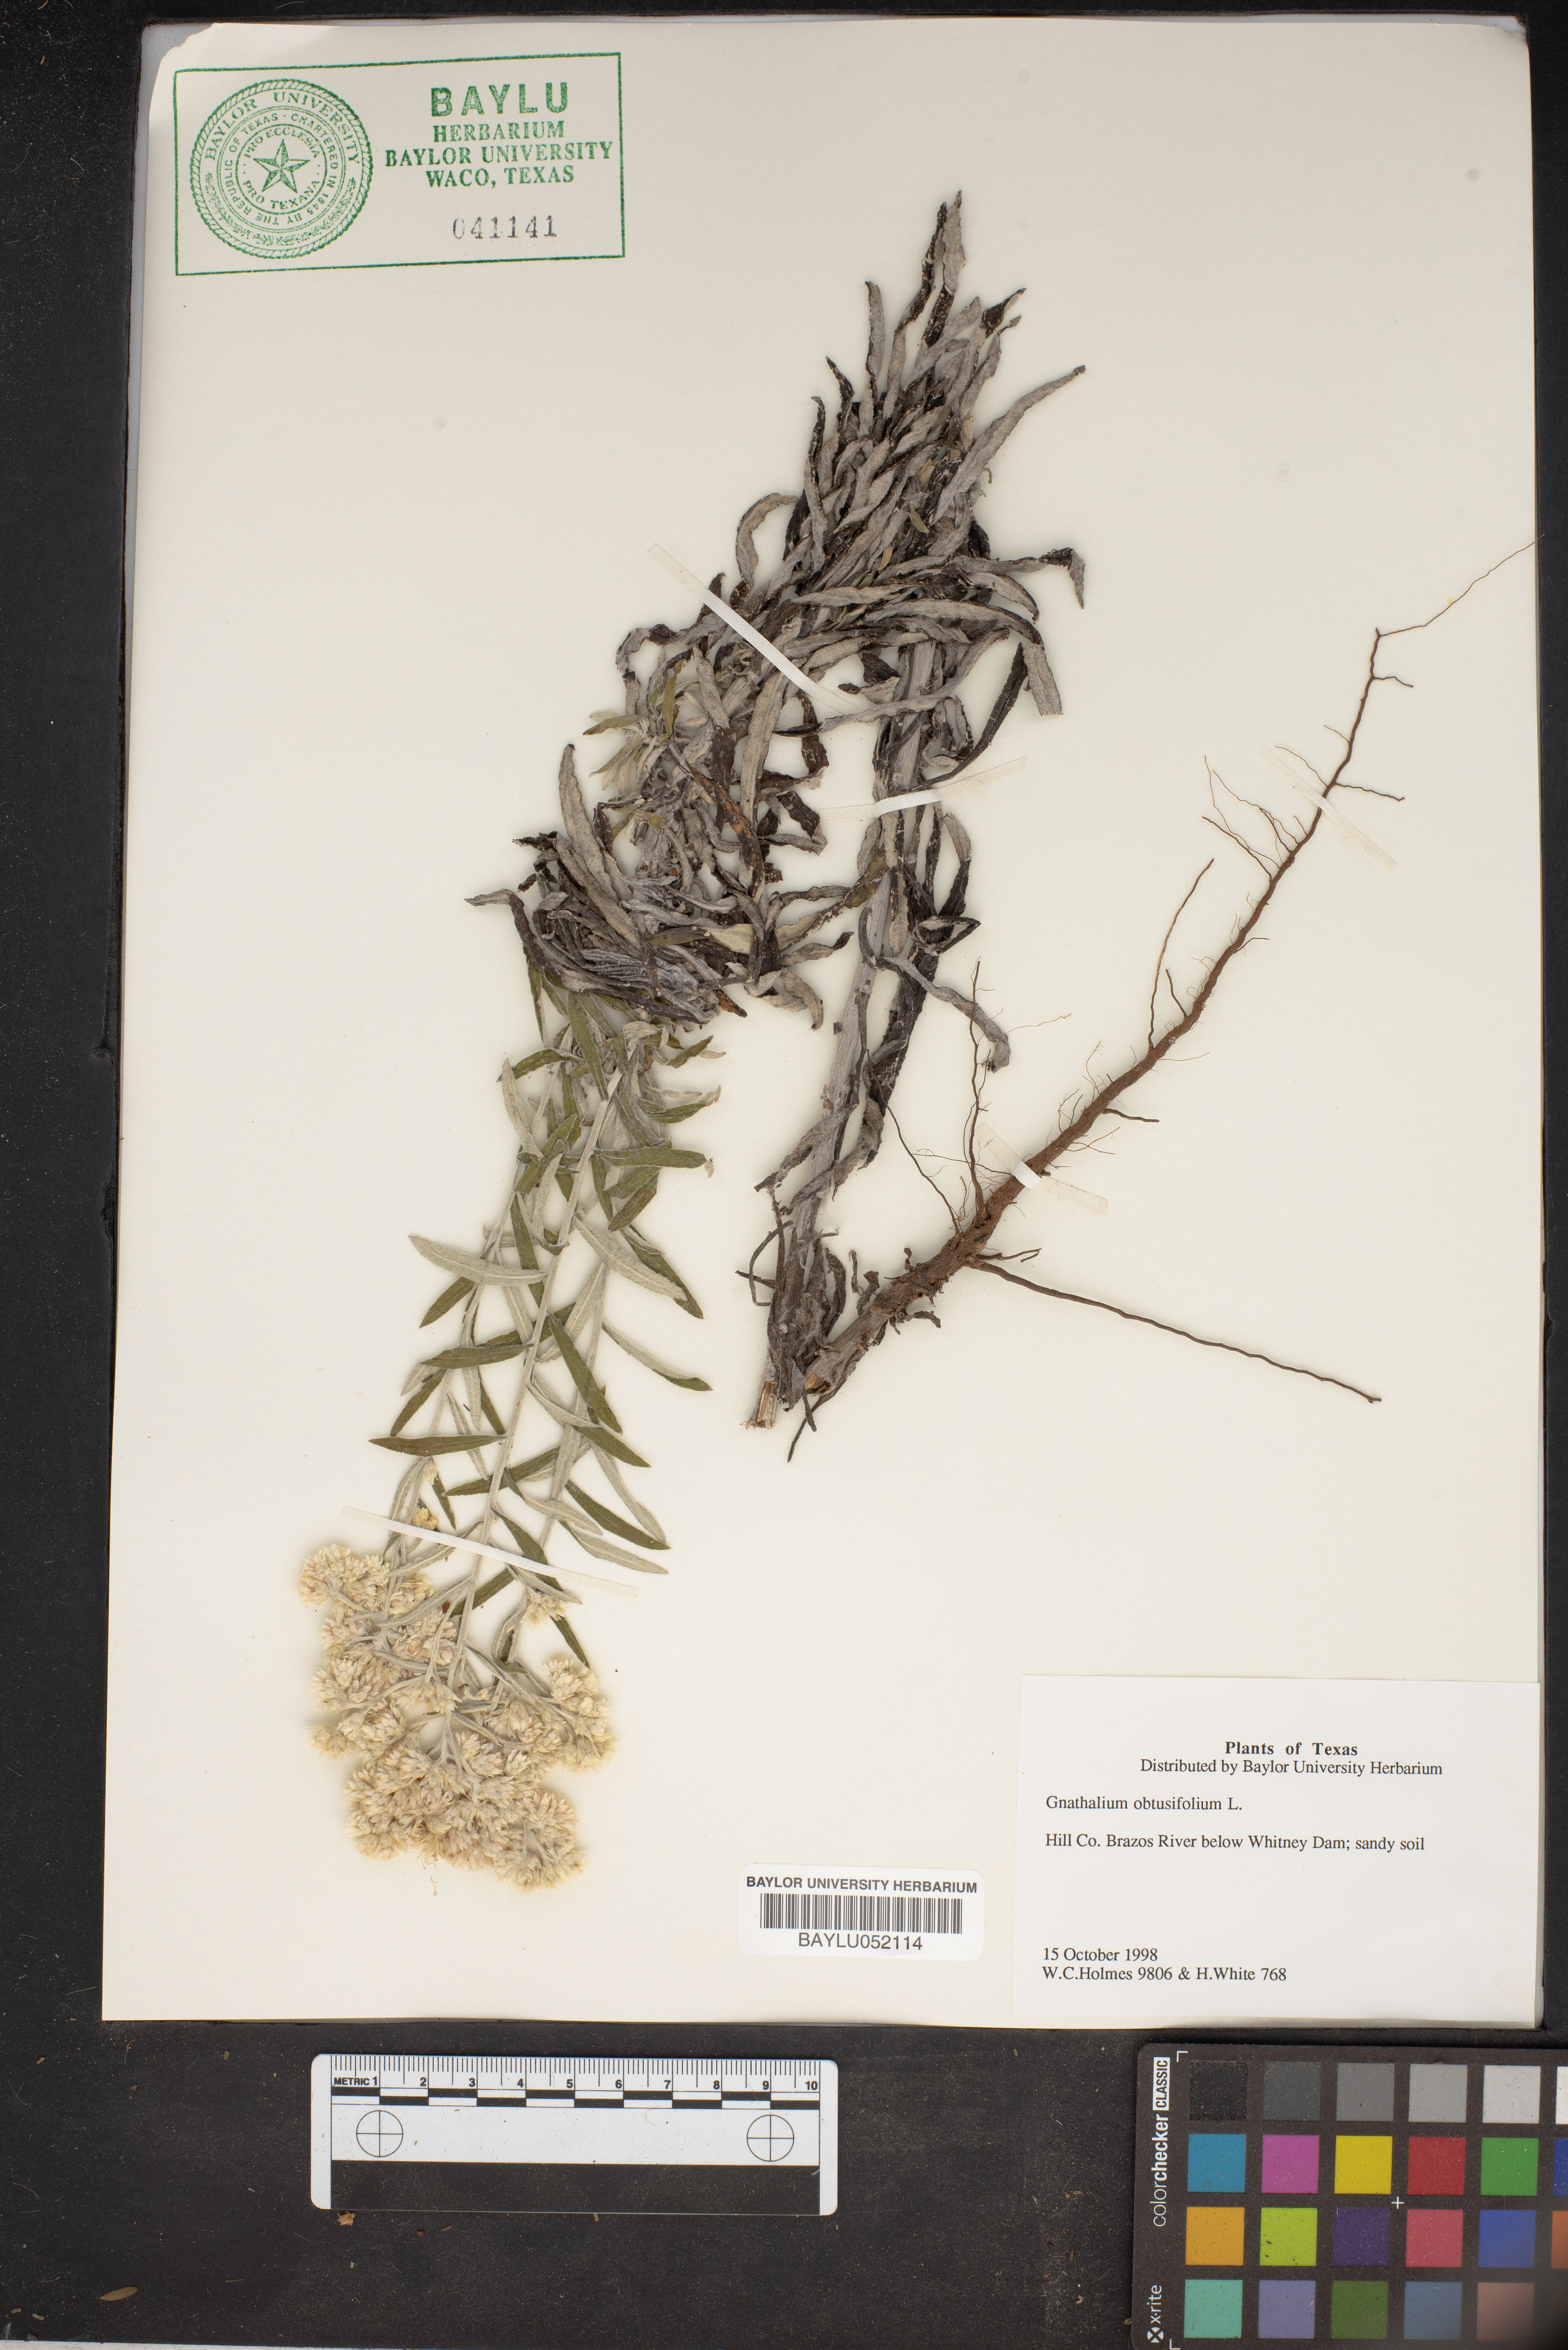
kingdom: Plantae
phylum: Tracheophyta
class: Magnoliopsida
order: Asterales
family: Asteraceae
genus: Pseudognaphalium
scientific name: Pseudognaphalium obtusifolium
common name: Eastern rabbit-tobacco
